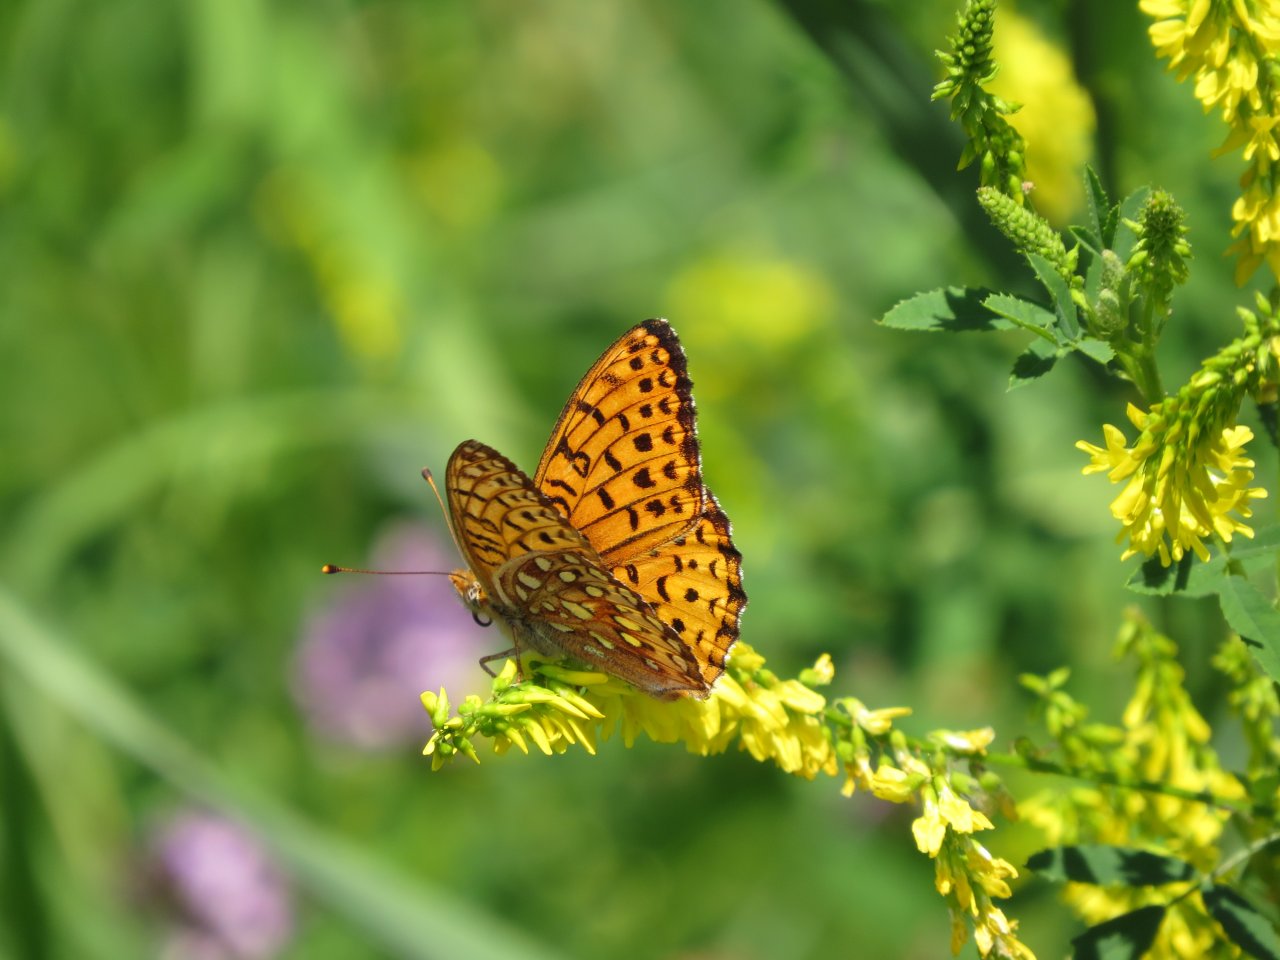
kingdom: Animalia
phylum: Arthropoda
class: Insecta
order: Lepidoptera
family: Nymphalidae
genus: Speyeria
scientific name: Speyeria atlantis
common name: Northwestern Fritillary
